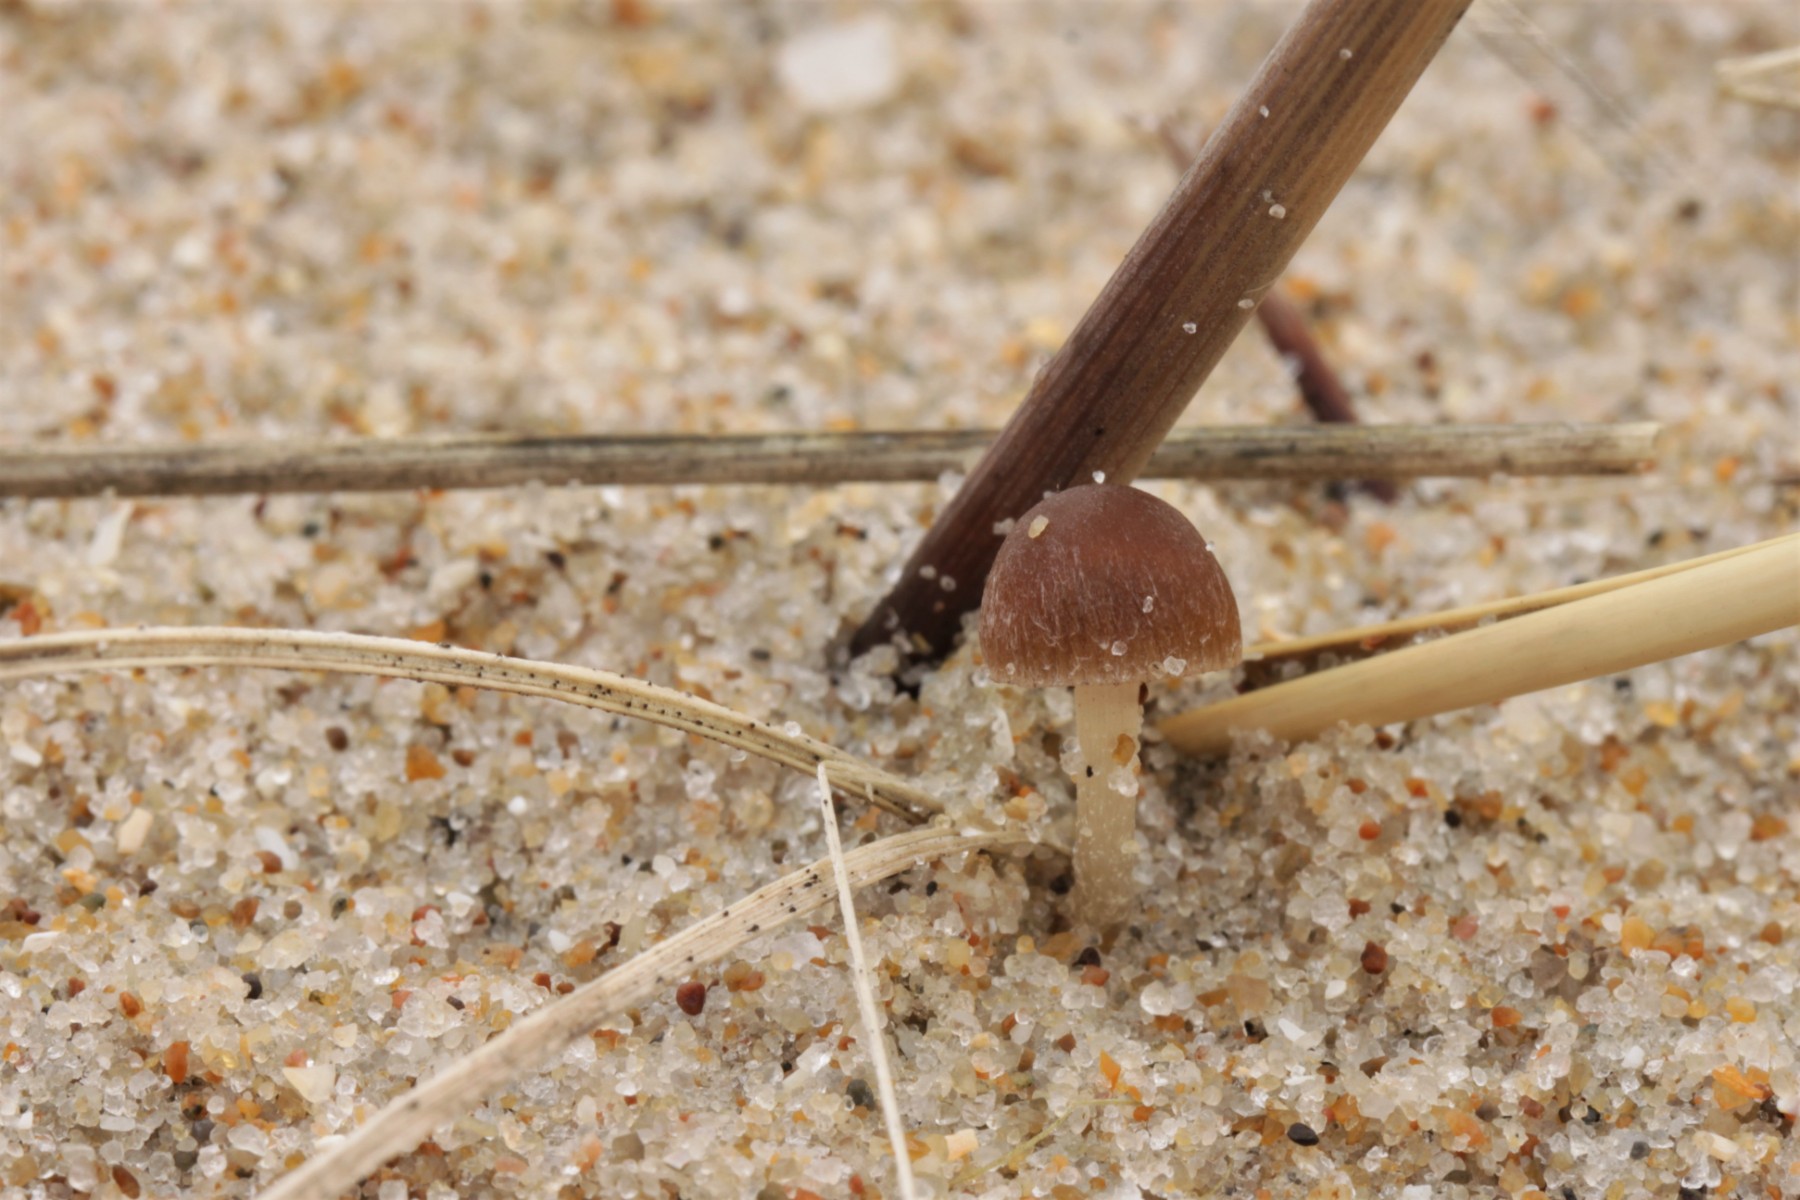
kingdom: Fungi
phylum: Basidiomycota
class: Agaricomycetes
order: Agaricales
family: Psathyrellaceae
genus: Psathyrella
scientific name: Psathyrella ammophila
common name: klit-mørkhat
